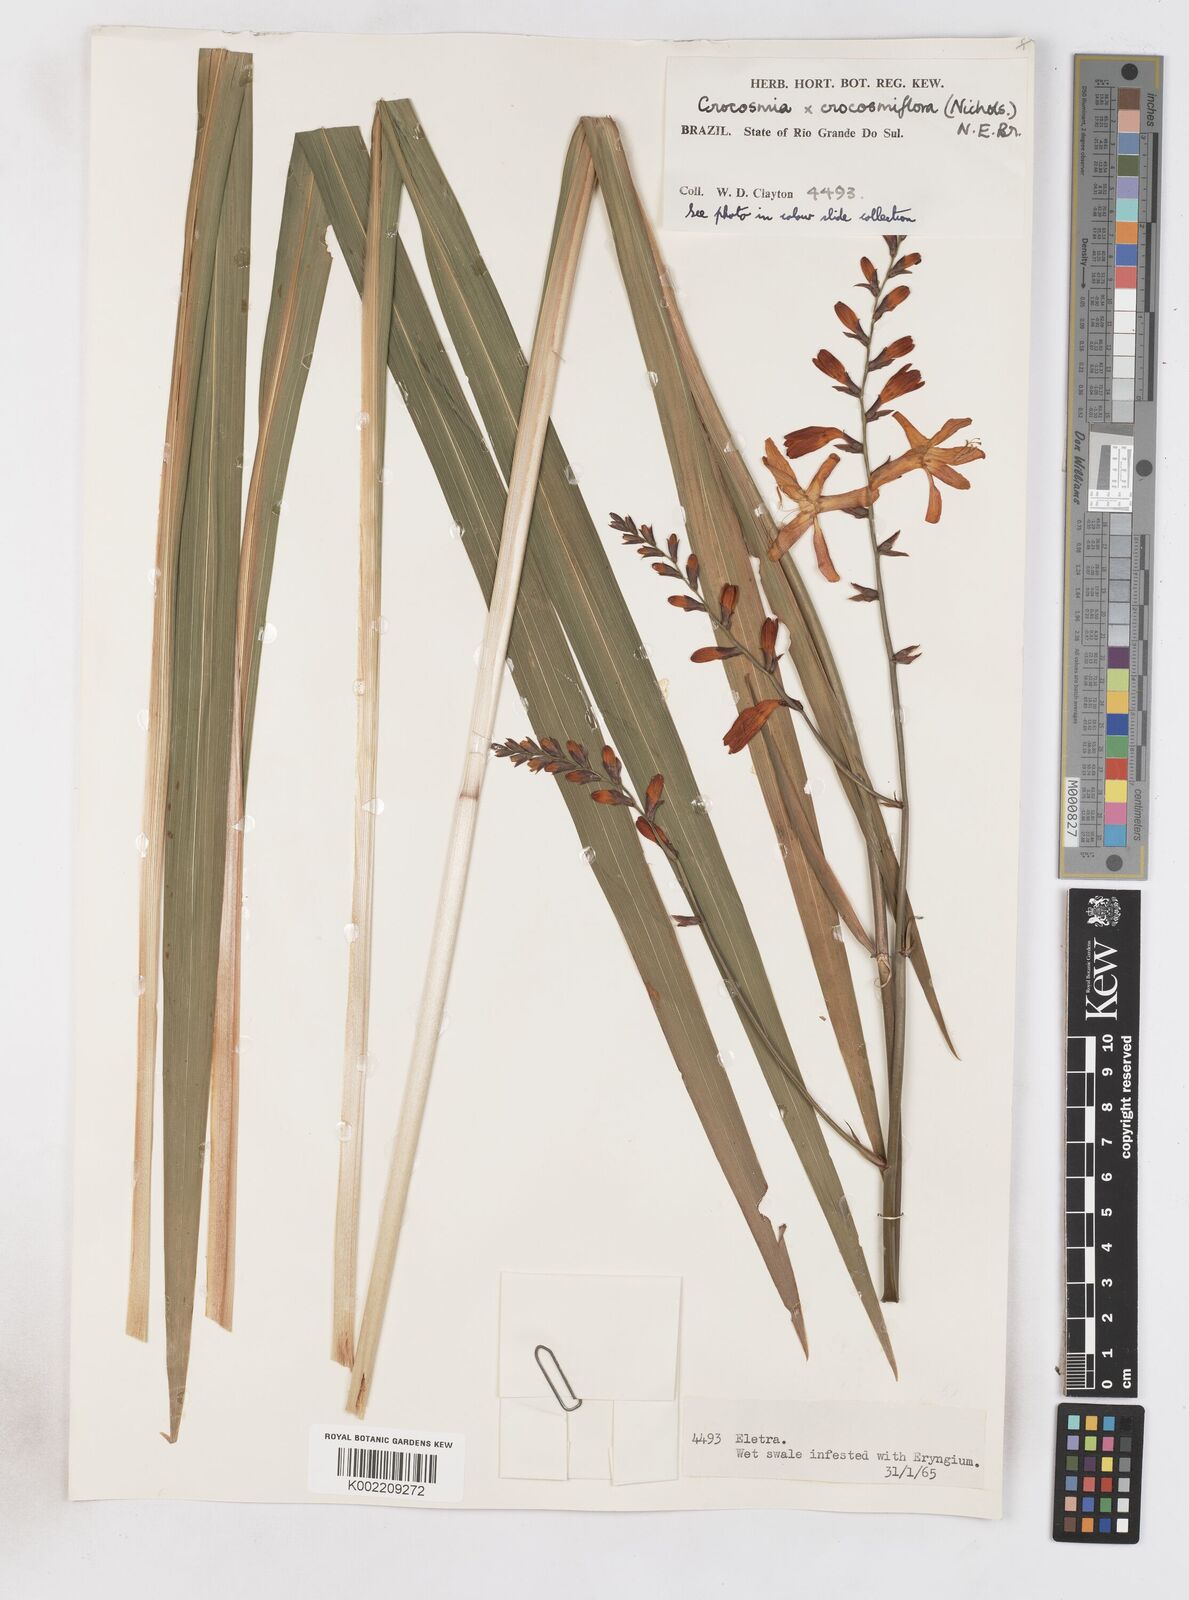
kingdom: Plantae
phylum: Tracheophyta
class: Liliopsida
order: Asparagales
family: Iridaceae
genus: Crocosmia
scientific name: Crocosmia crocosmiiflora
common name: Montbretia
